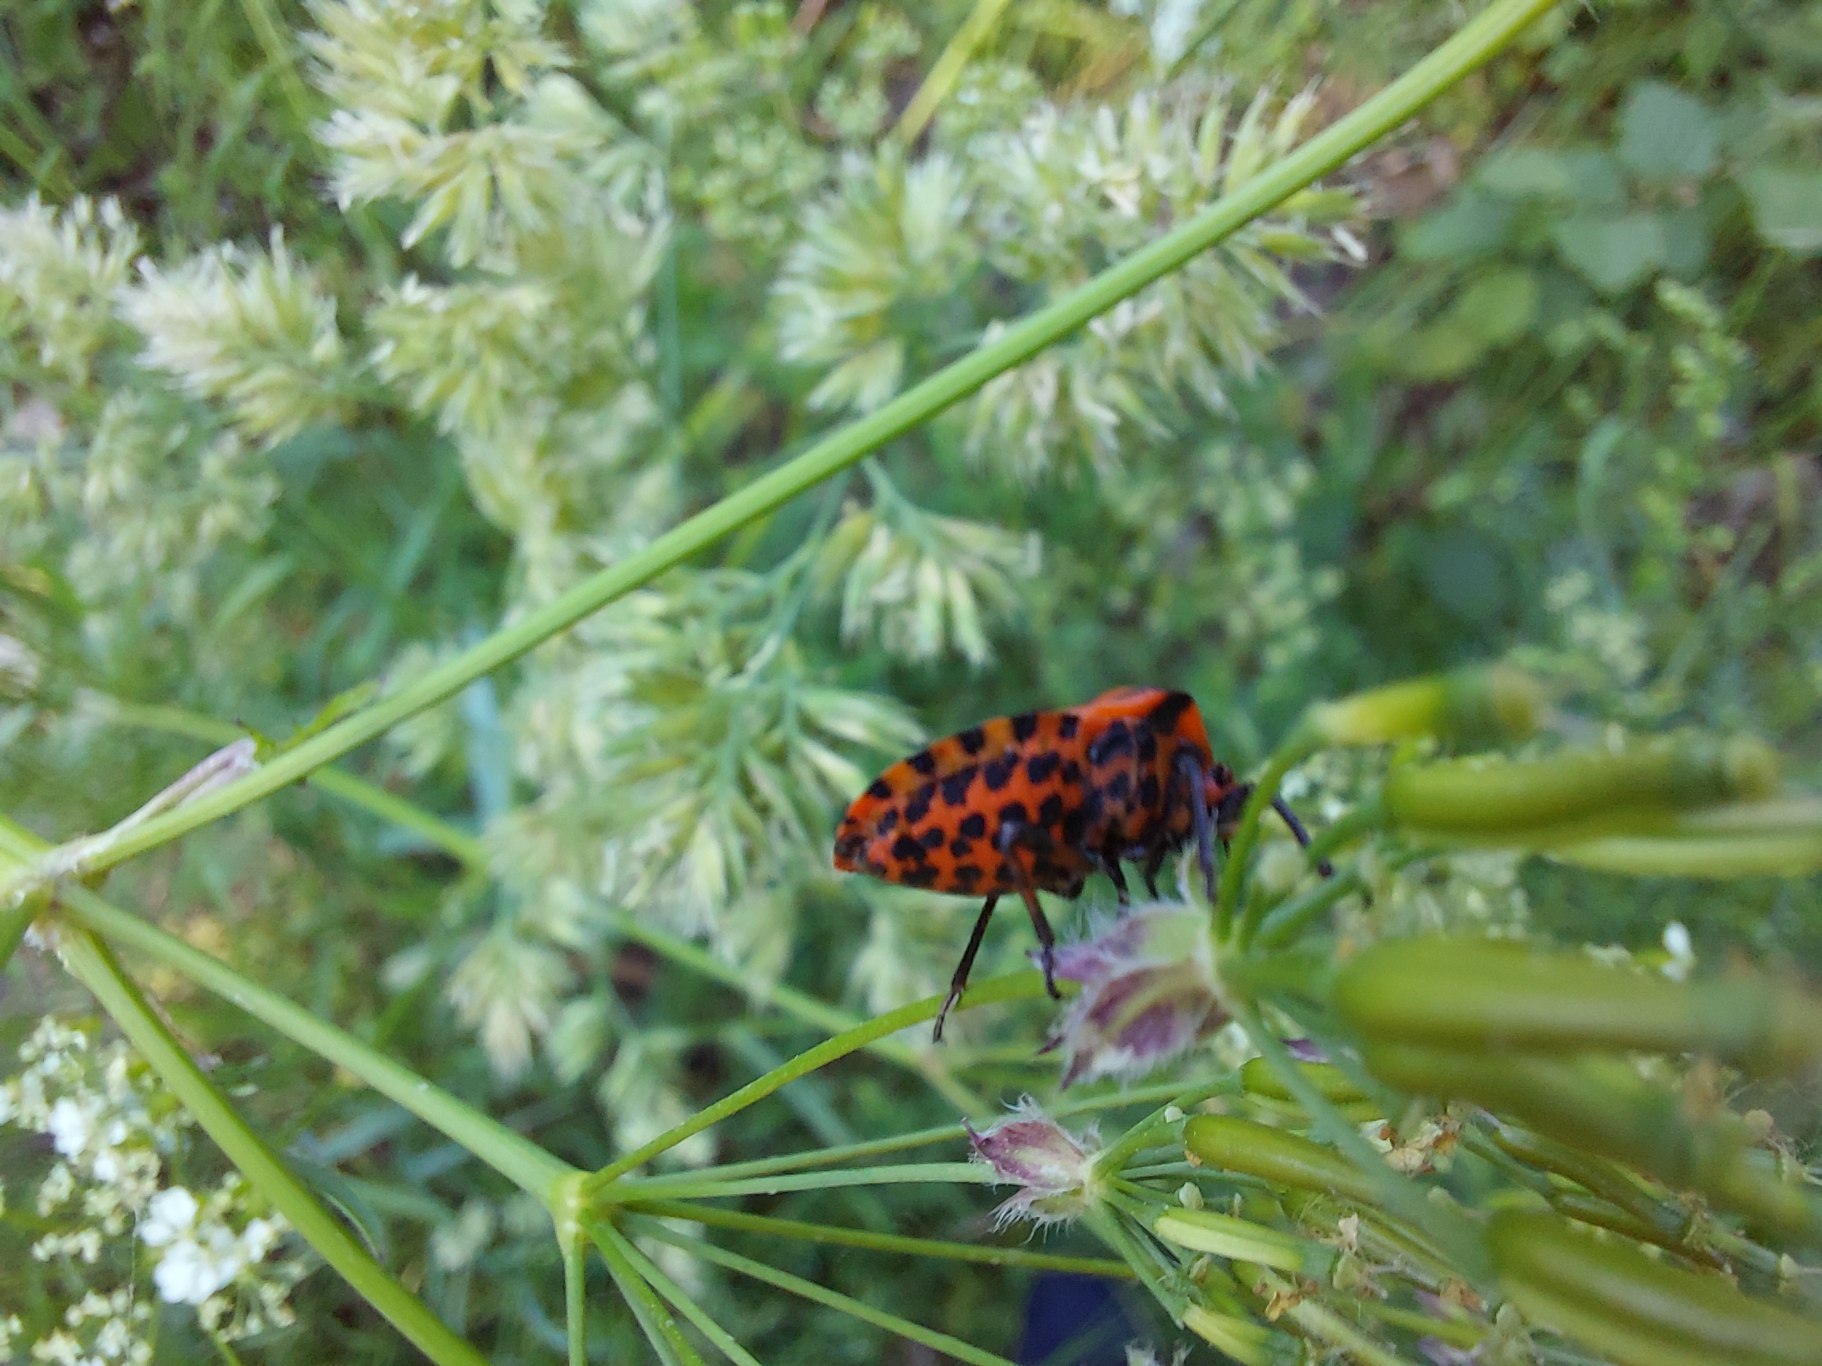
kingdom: Animalia
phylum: Arthropoda
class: Insecta
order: Hemiptera
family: Pentatomidae
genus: Graphosoma
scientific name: Graphosoma italicum
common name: Stribetæge
